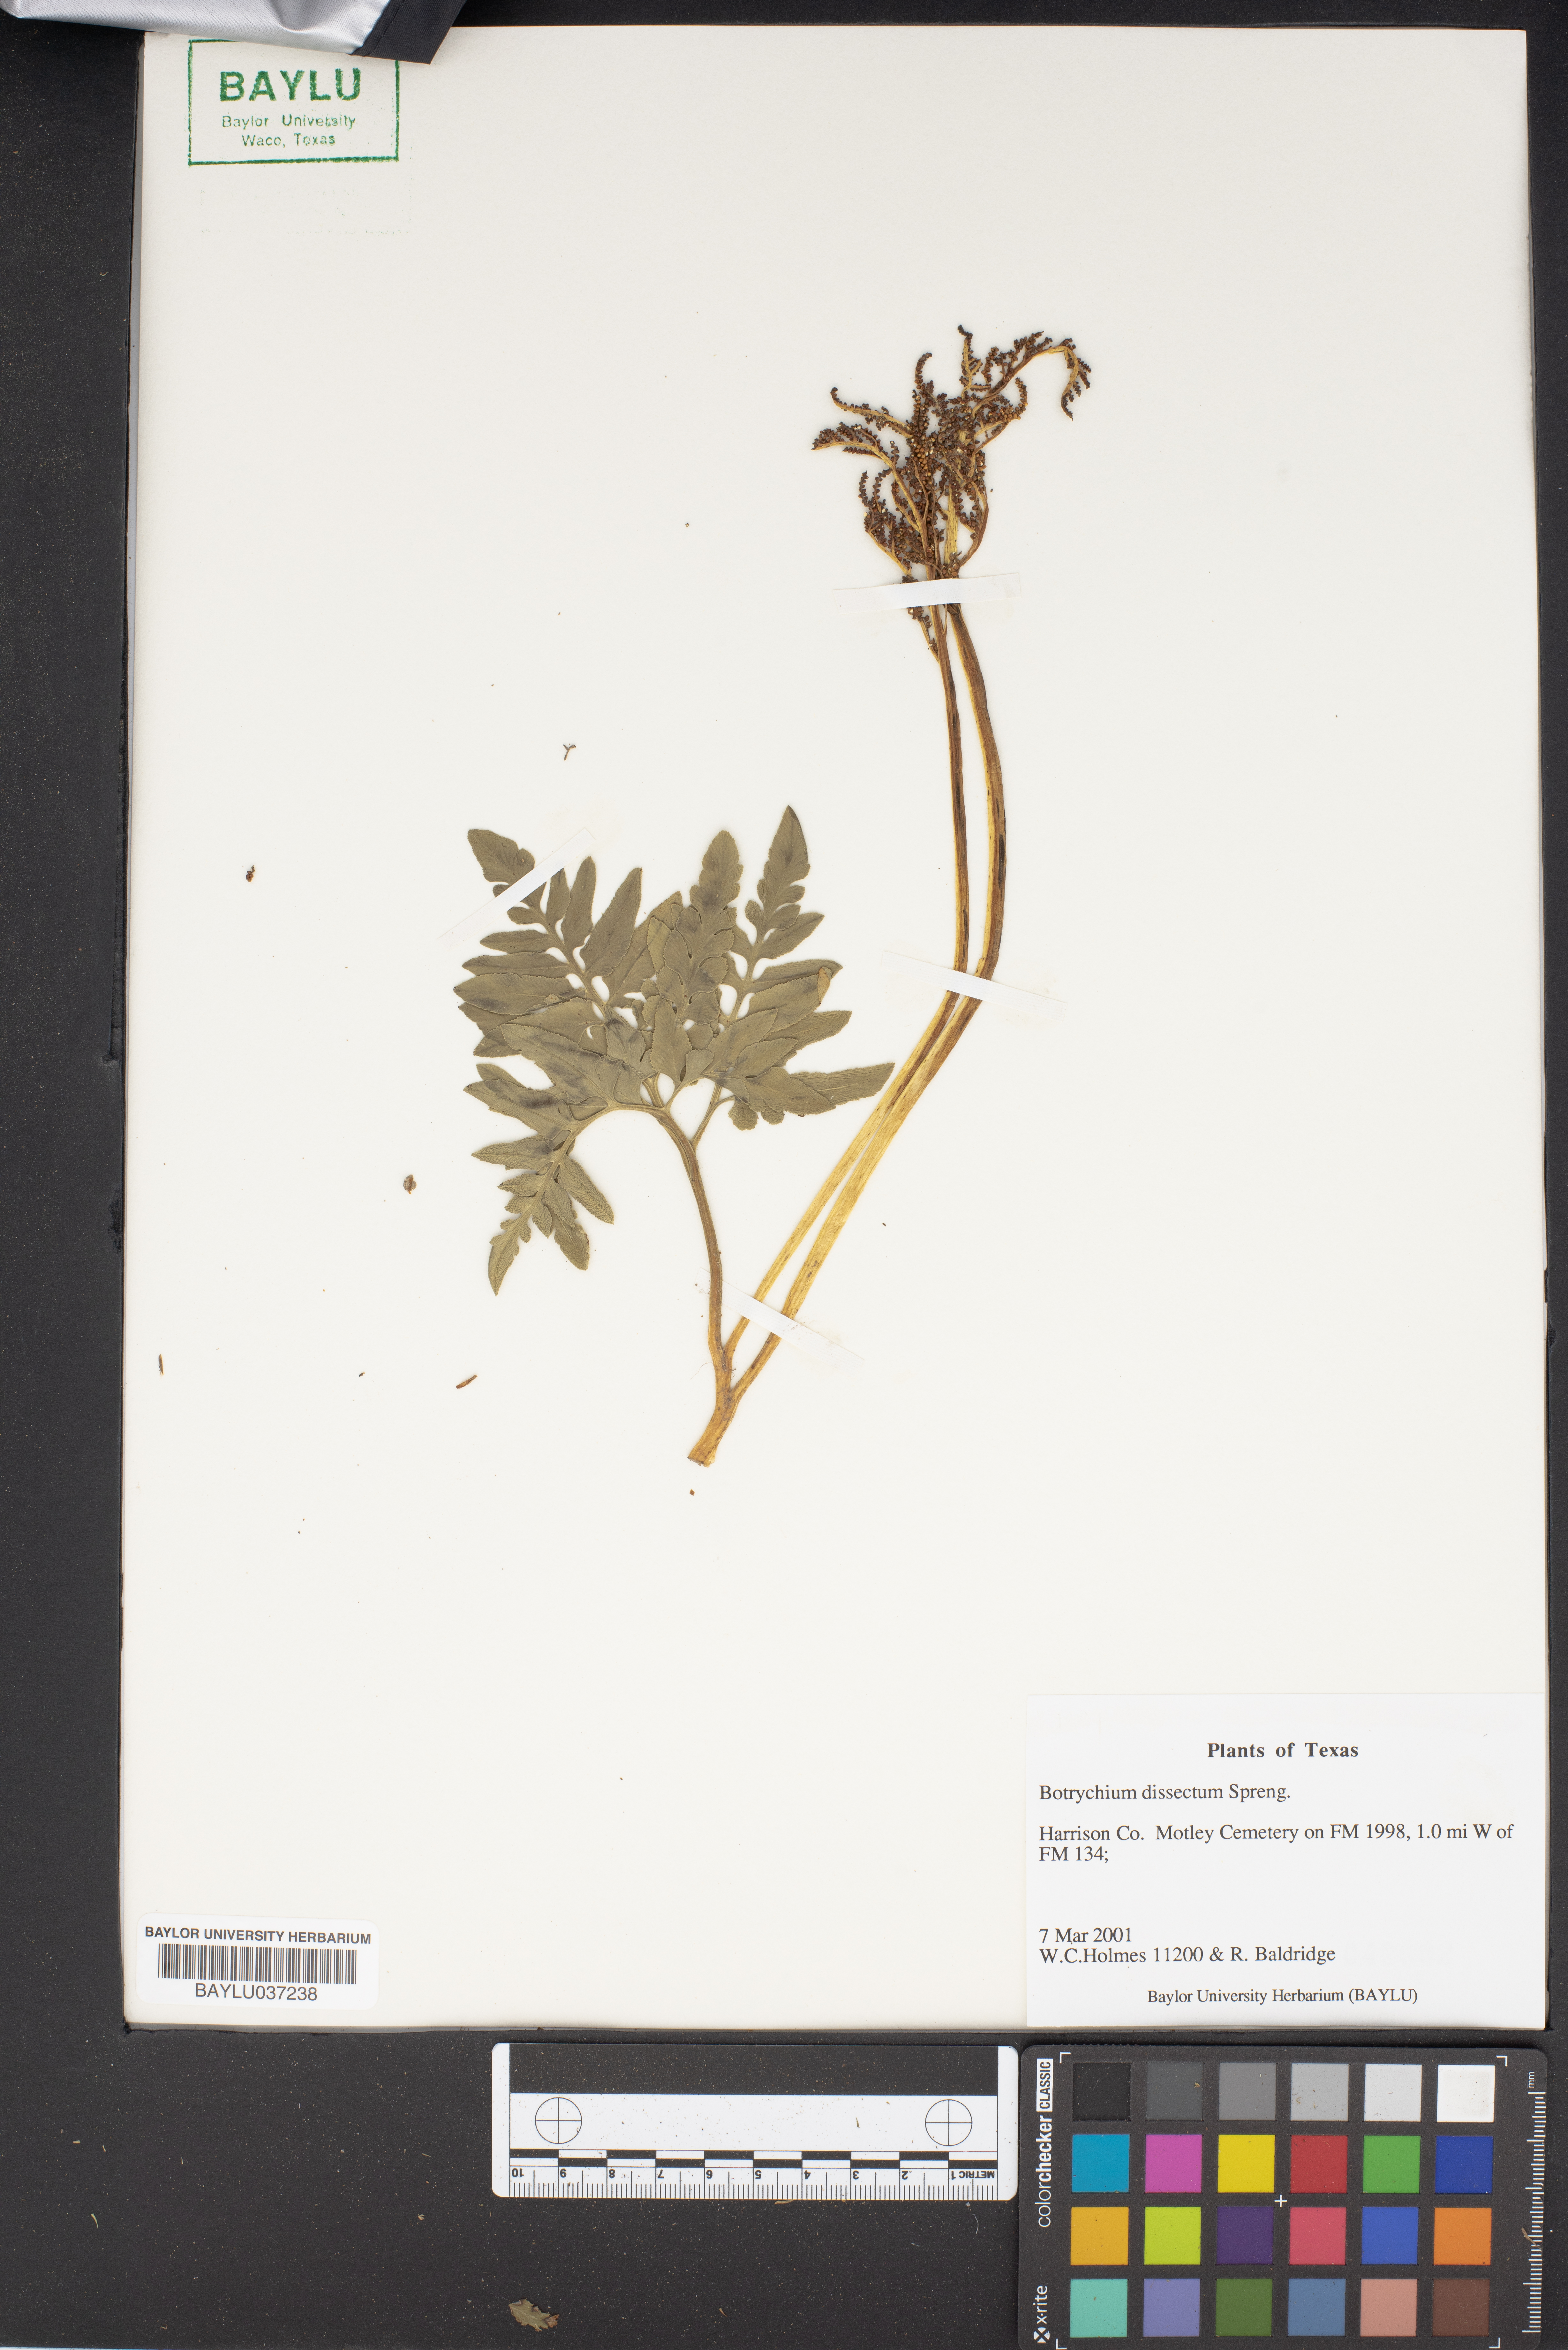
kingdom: Plantae
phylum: Tracheophyta
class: Polypodiopsida
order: Ophioglossales
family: Ophioglossaceae
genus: Sceptridium
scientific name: Sceptridium dissectum
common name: Cut-leaved grapefern
